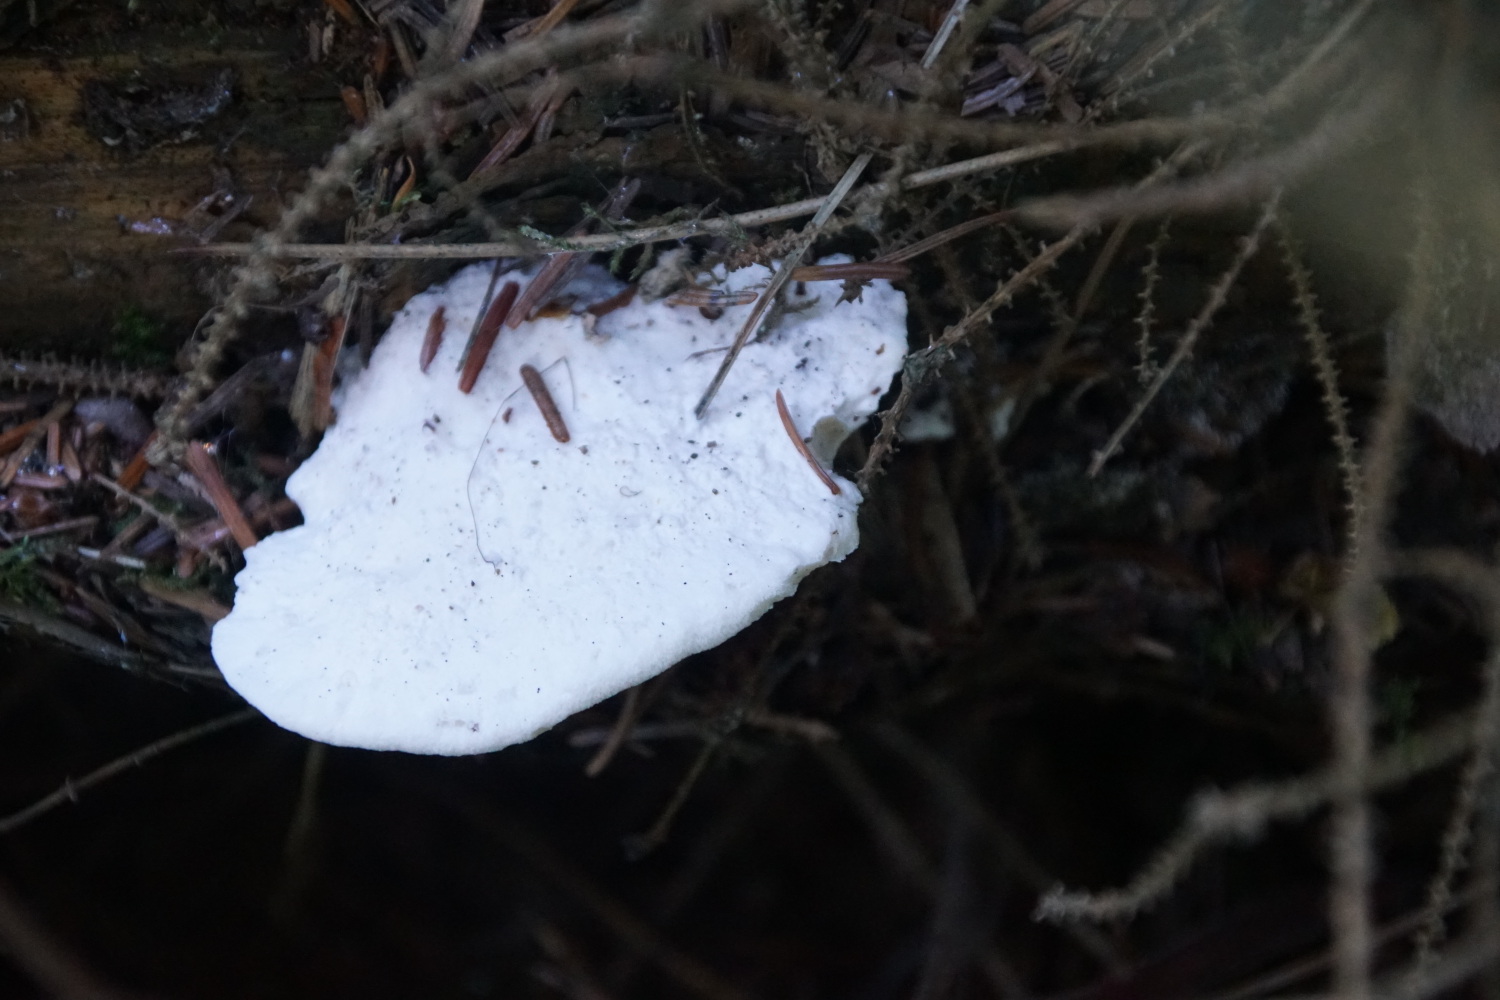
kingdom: Fungi
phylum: Basidiomycota
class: Agaricomycetes
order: Polyporales
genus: Amaropostia
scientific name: Amaropostia stiptica
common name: bitter kødporesvamp
